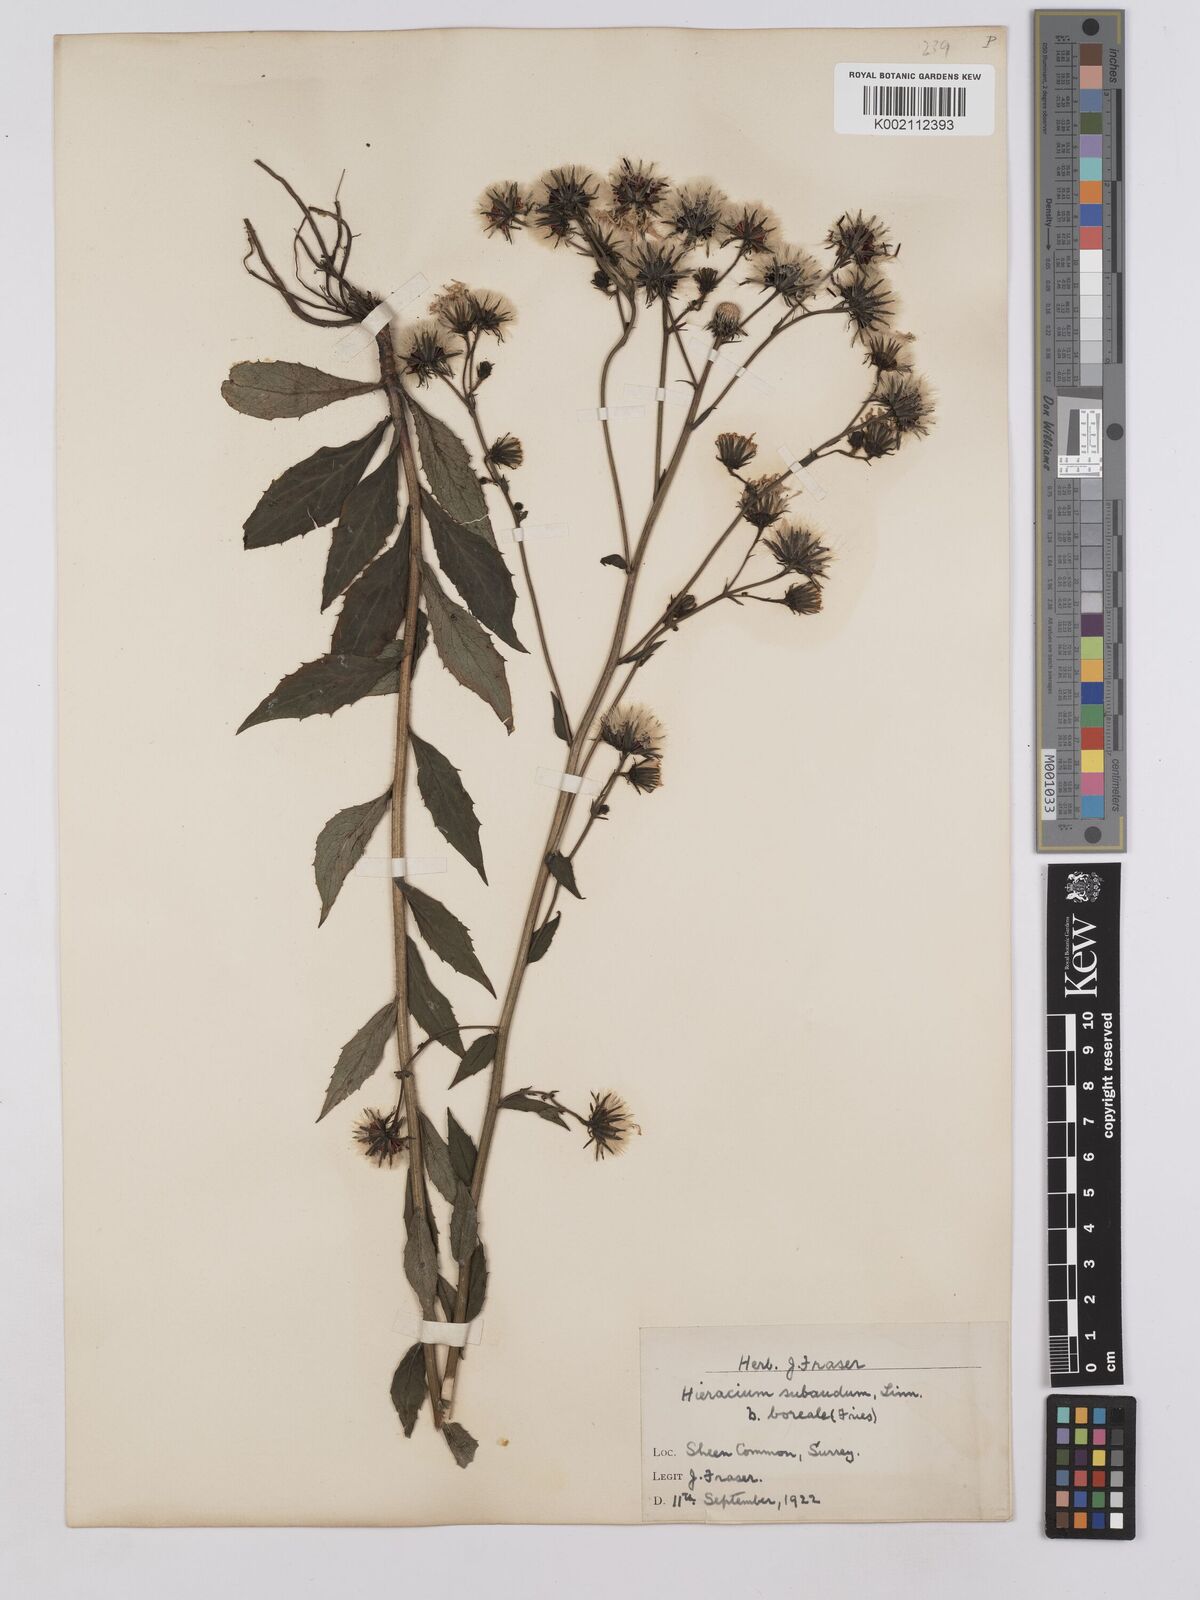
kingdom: Plantae
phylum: Tracheophyta
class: Magnoliopsida
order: Asterales
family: Asteraceae
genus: Hieracium
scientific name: Hieracium sabaudum
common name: New england hawkweed
